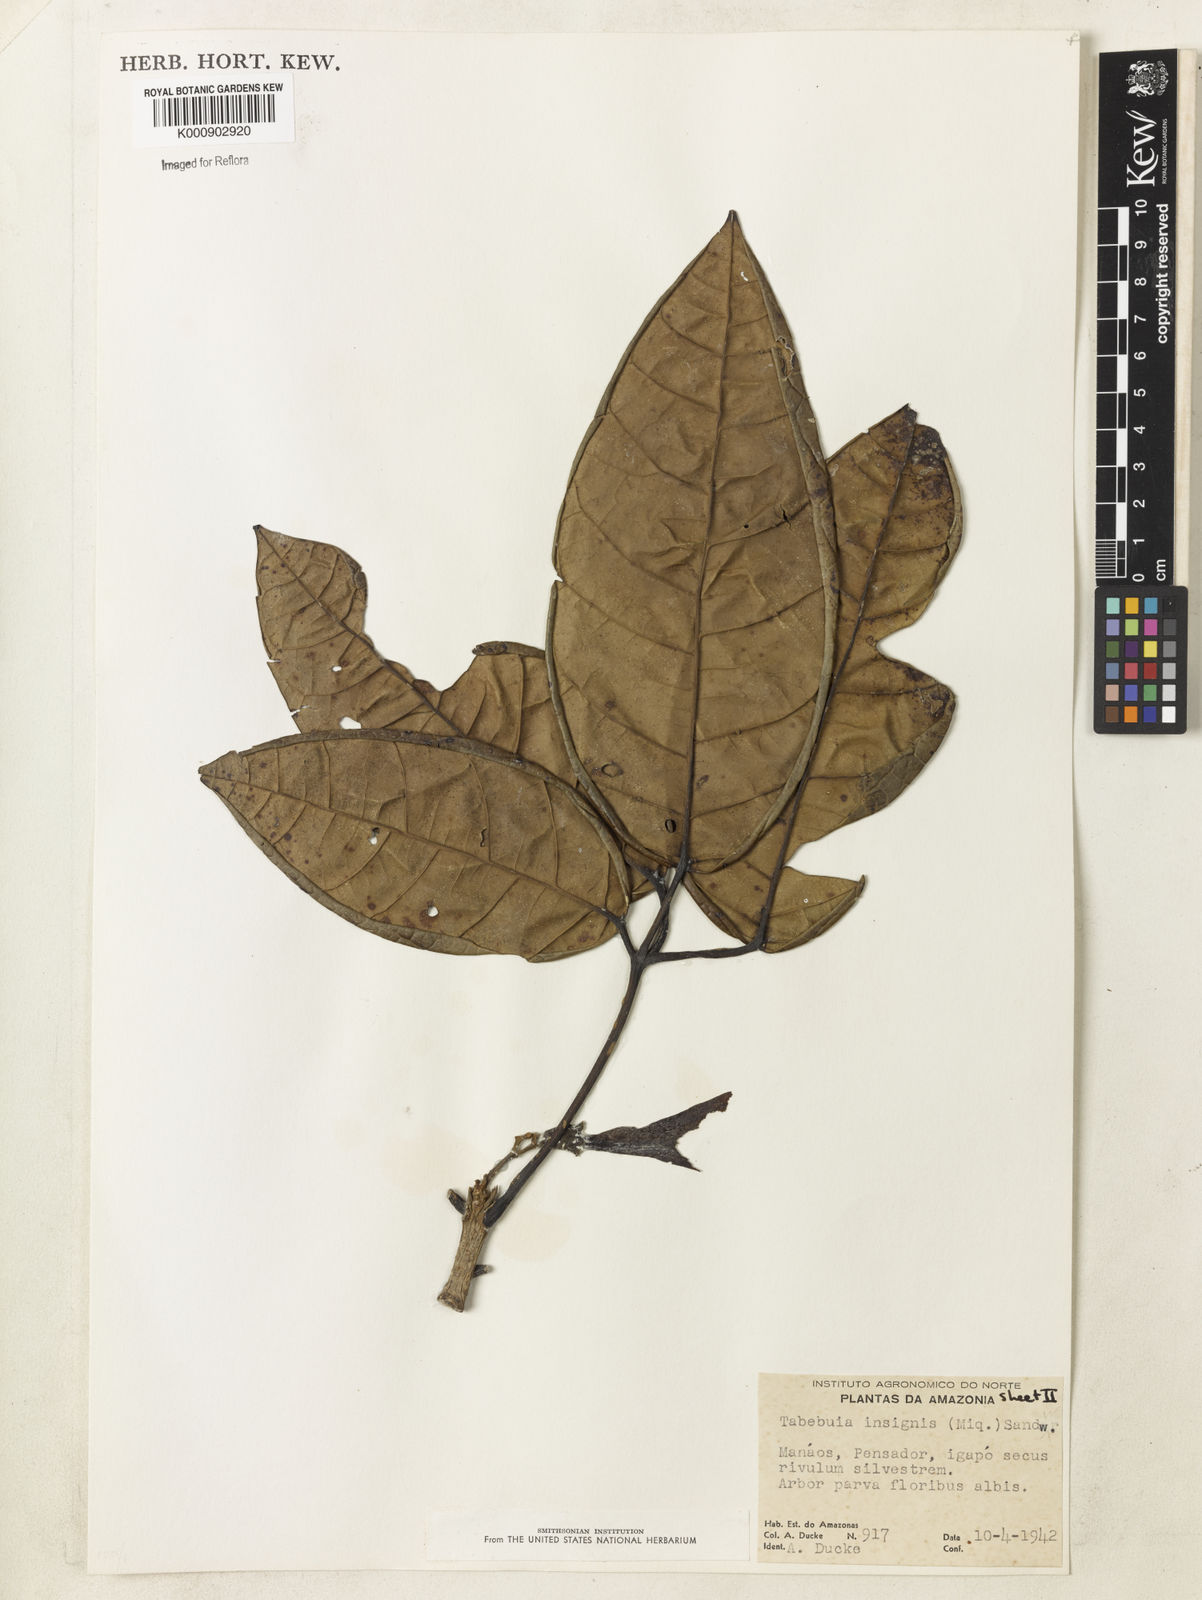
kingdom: Plantae
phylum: Tracheophyta
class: Magnoliopsida
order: Lamiales
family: Bignoniaceae
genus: Tabebuia
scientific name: Tabebuia insignis
